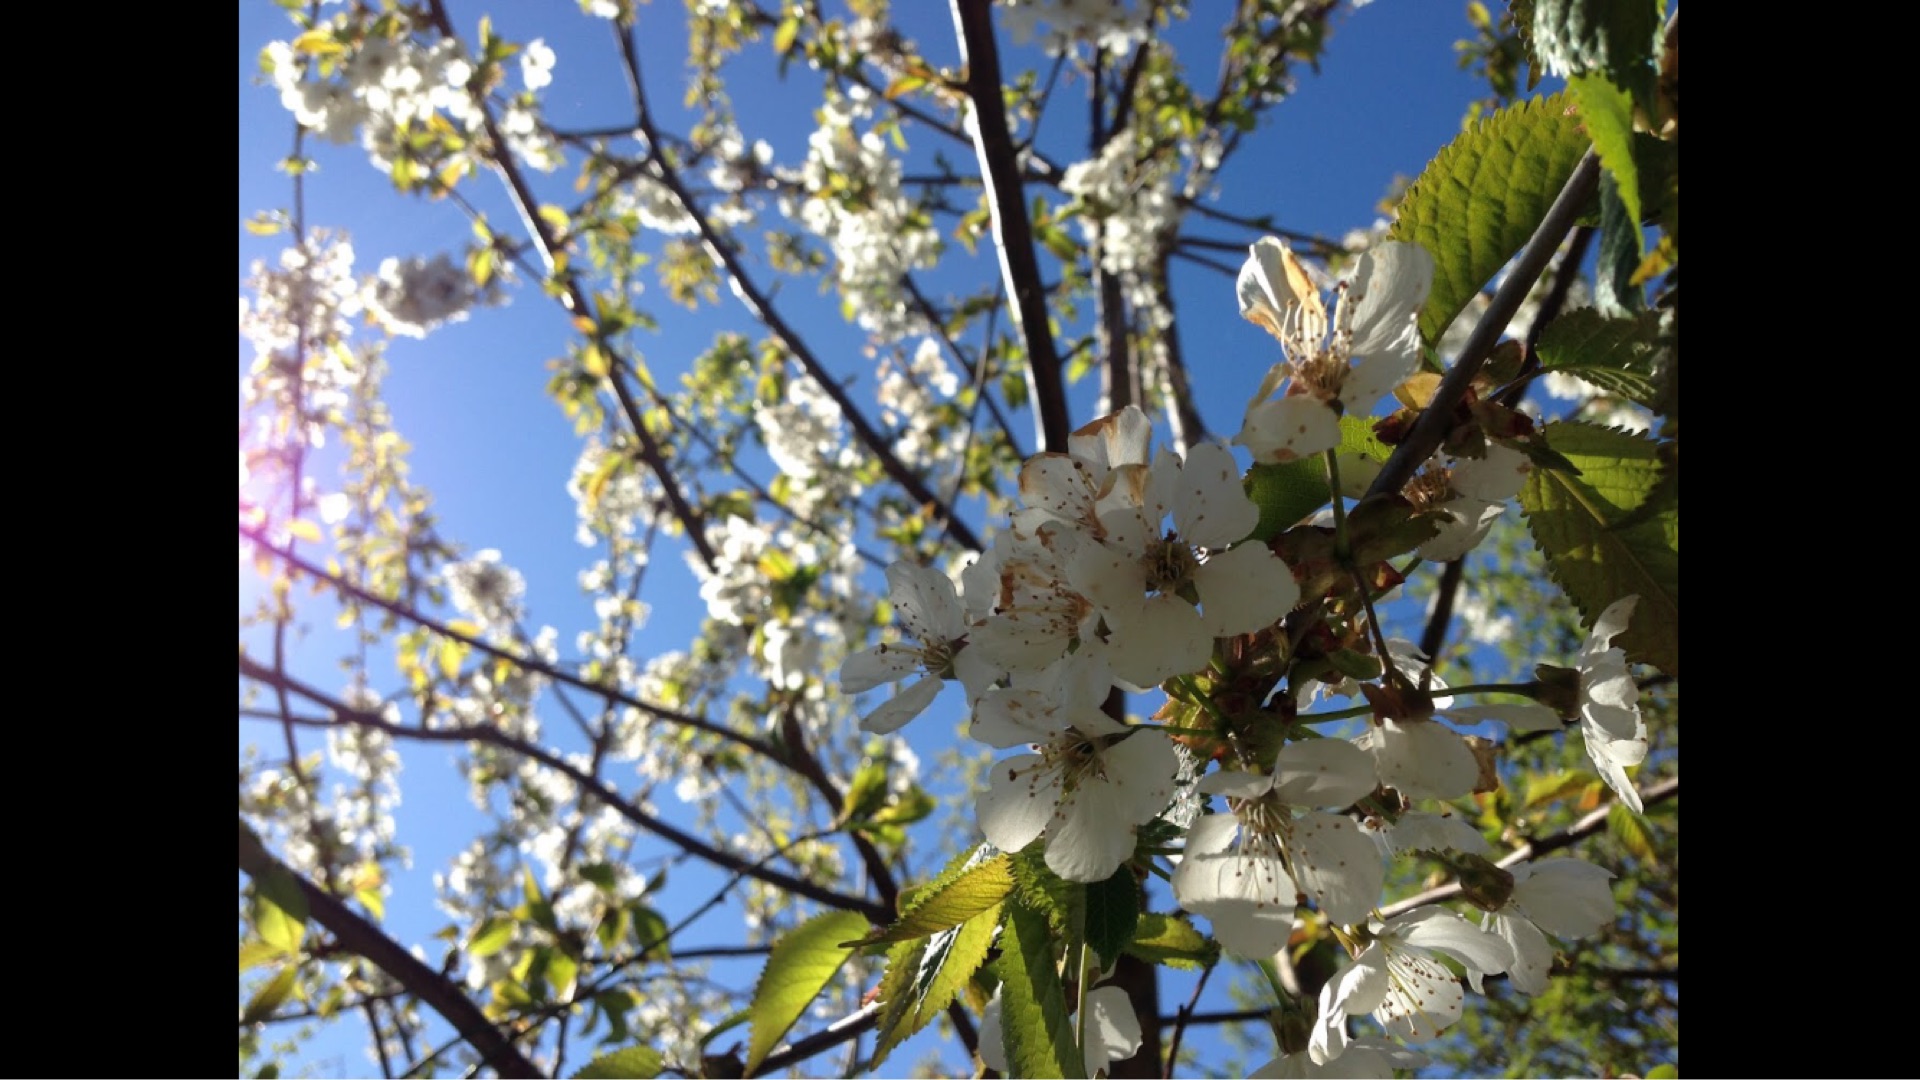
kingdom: Plantae
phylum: Tracheophyta
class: Magnoliopsida
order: Rosales
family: Rosaceae
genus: Prunus
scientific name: Prunus cerasifera
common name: Mirabel
